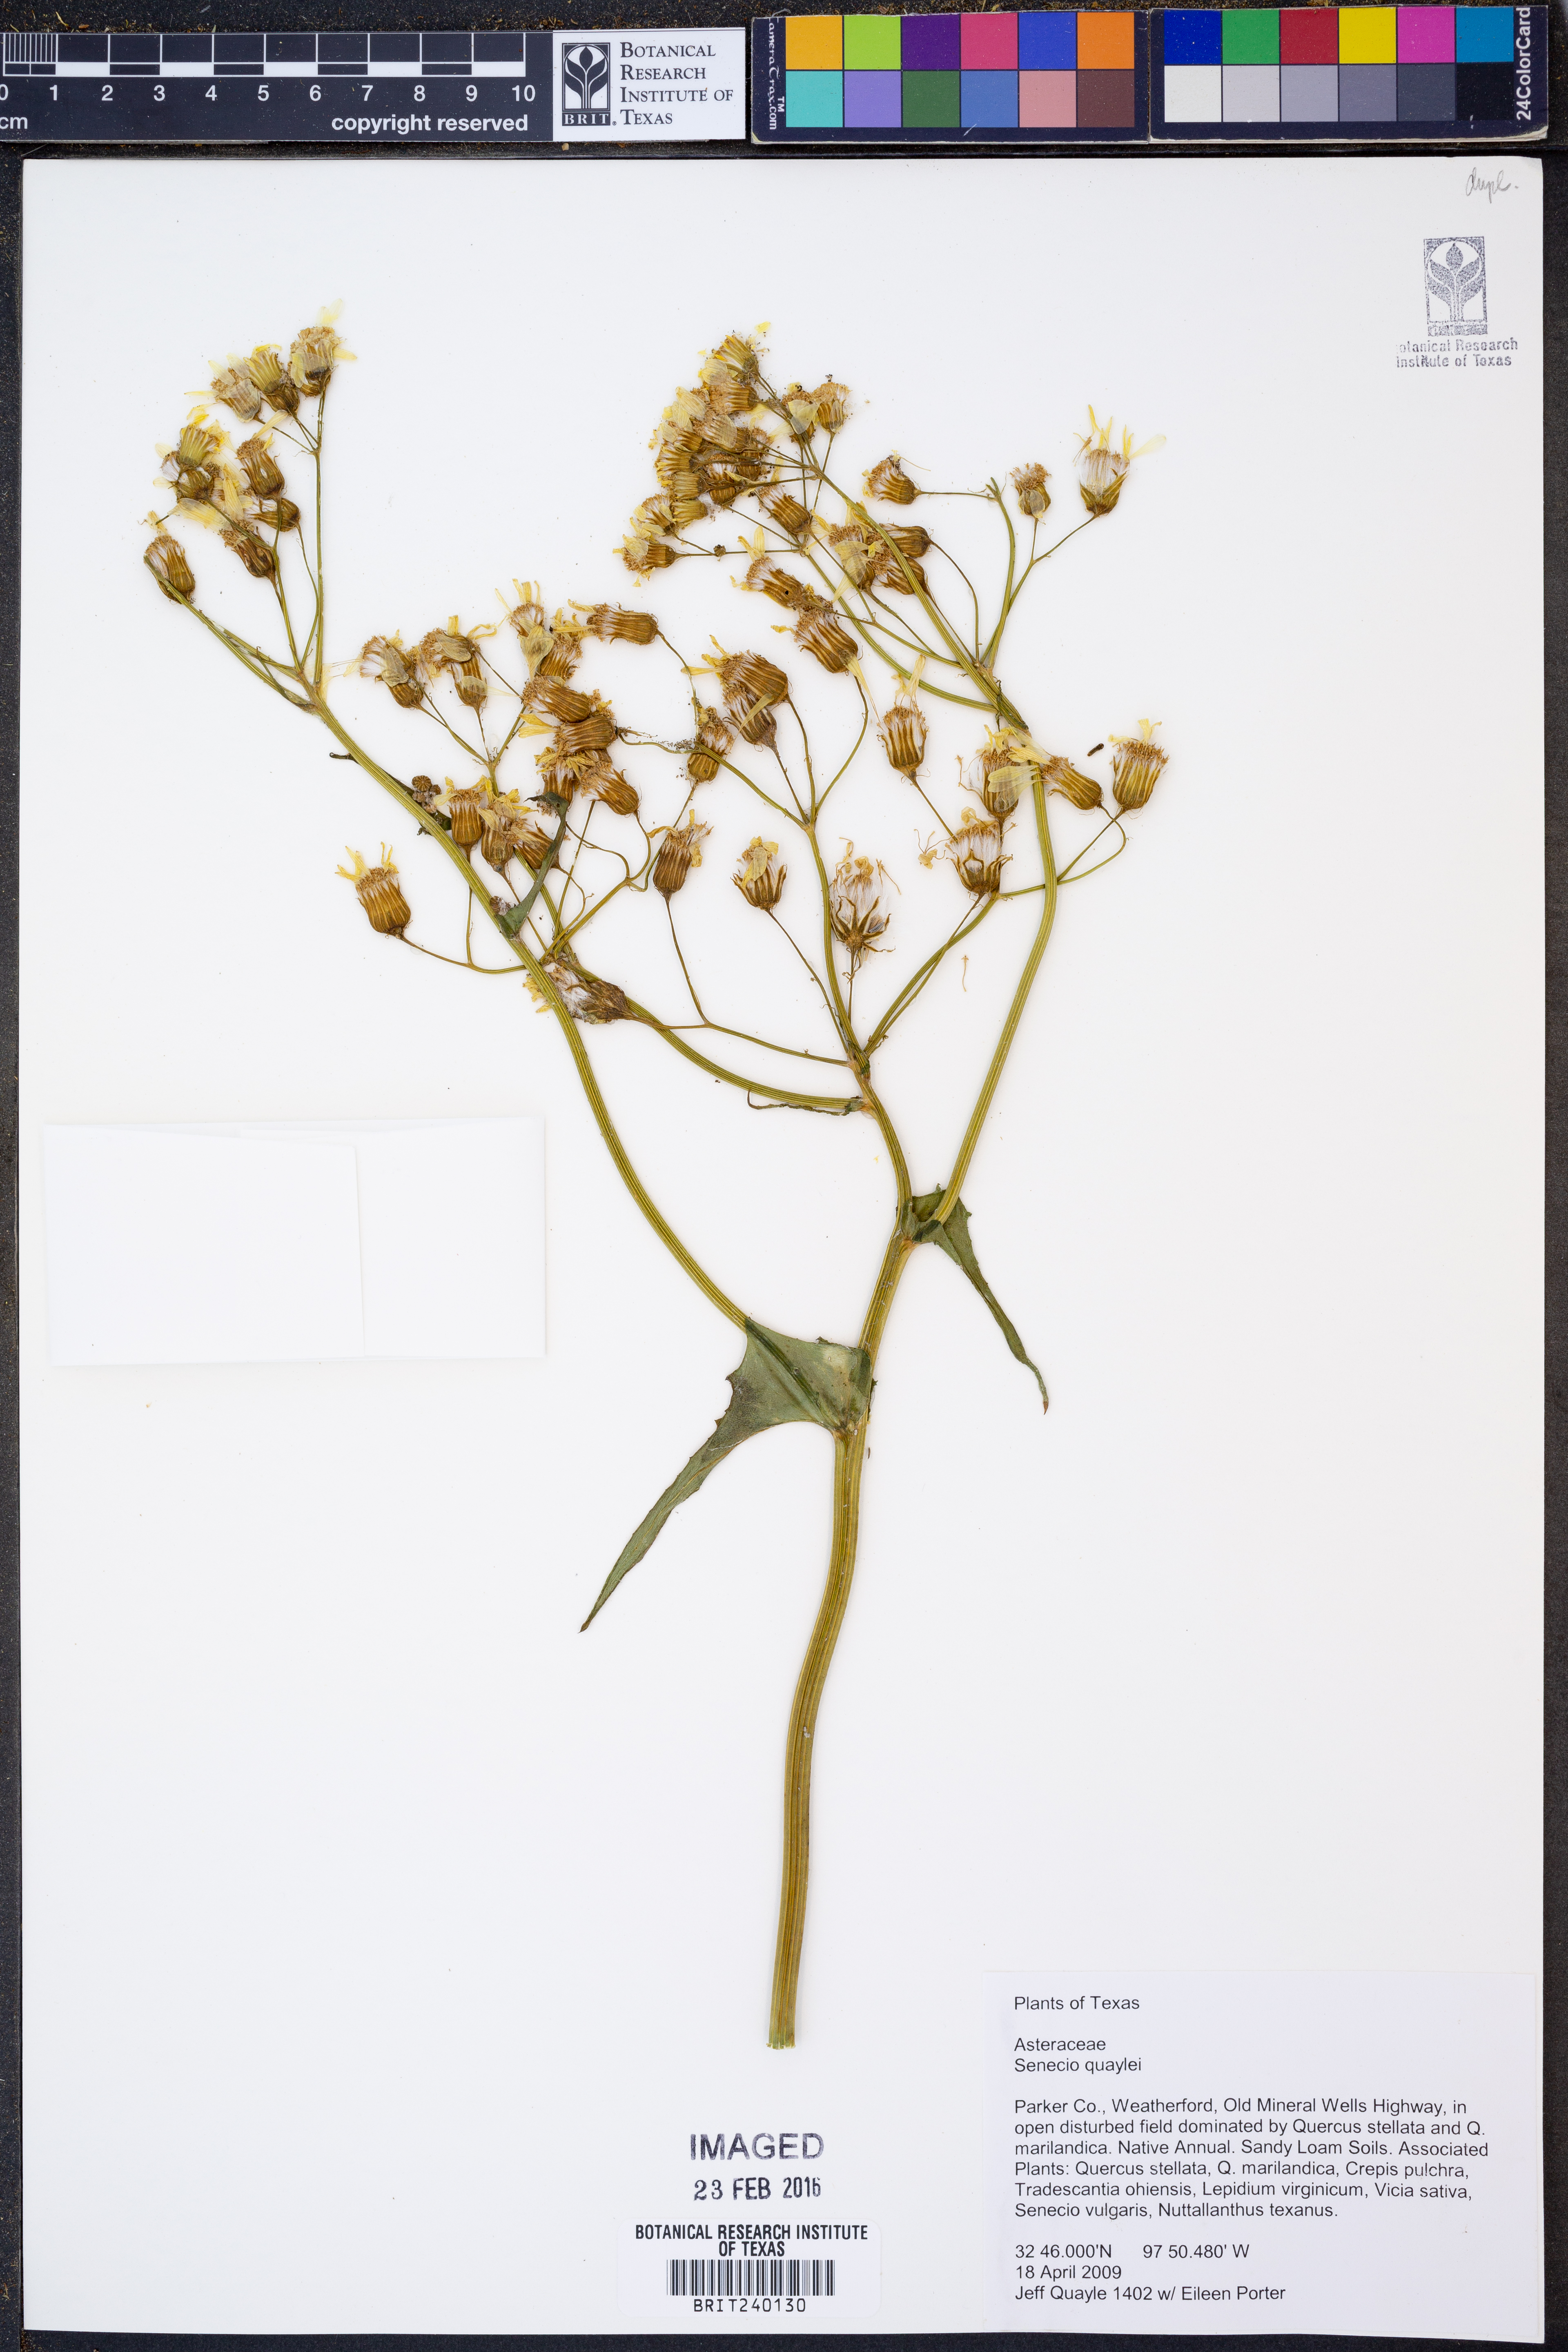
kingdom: Plantae
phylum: Tracheophyta
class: Magnoliopsida
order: Asterales
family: Asteraceae
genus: Senecio
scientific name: Senecio quaylei
